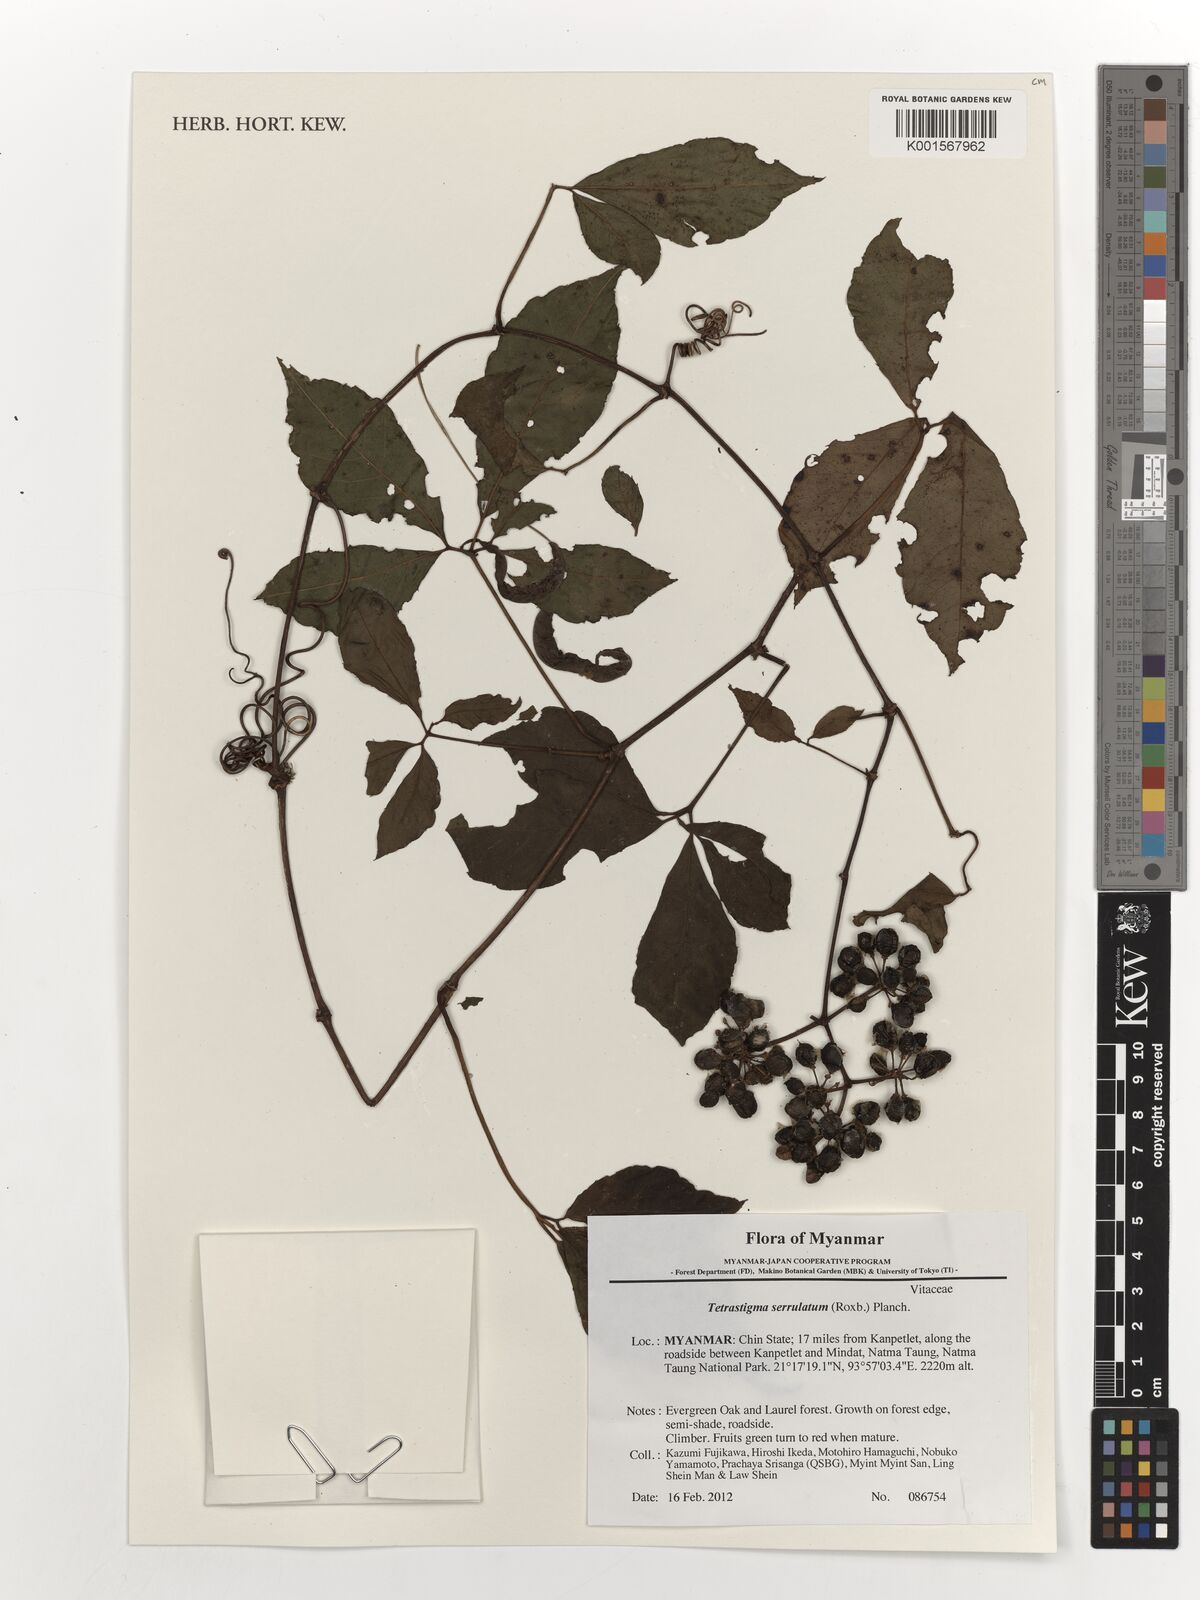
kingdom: Plantae
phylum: Tracheophyta
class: Magnoliopsida
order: Vitales
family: Vitaceae
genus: Tetrastigma
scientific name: Tetrastigma serrulatum
